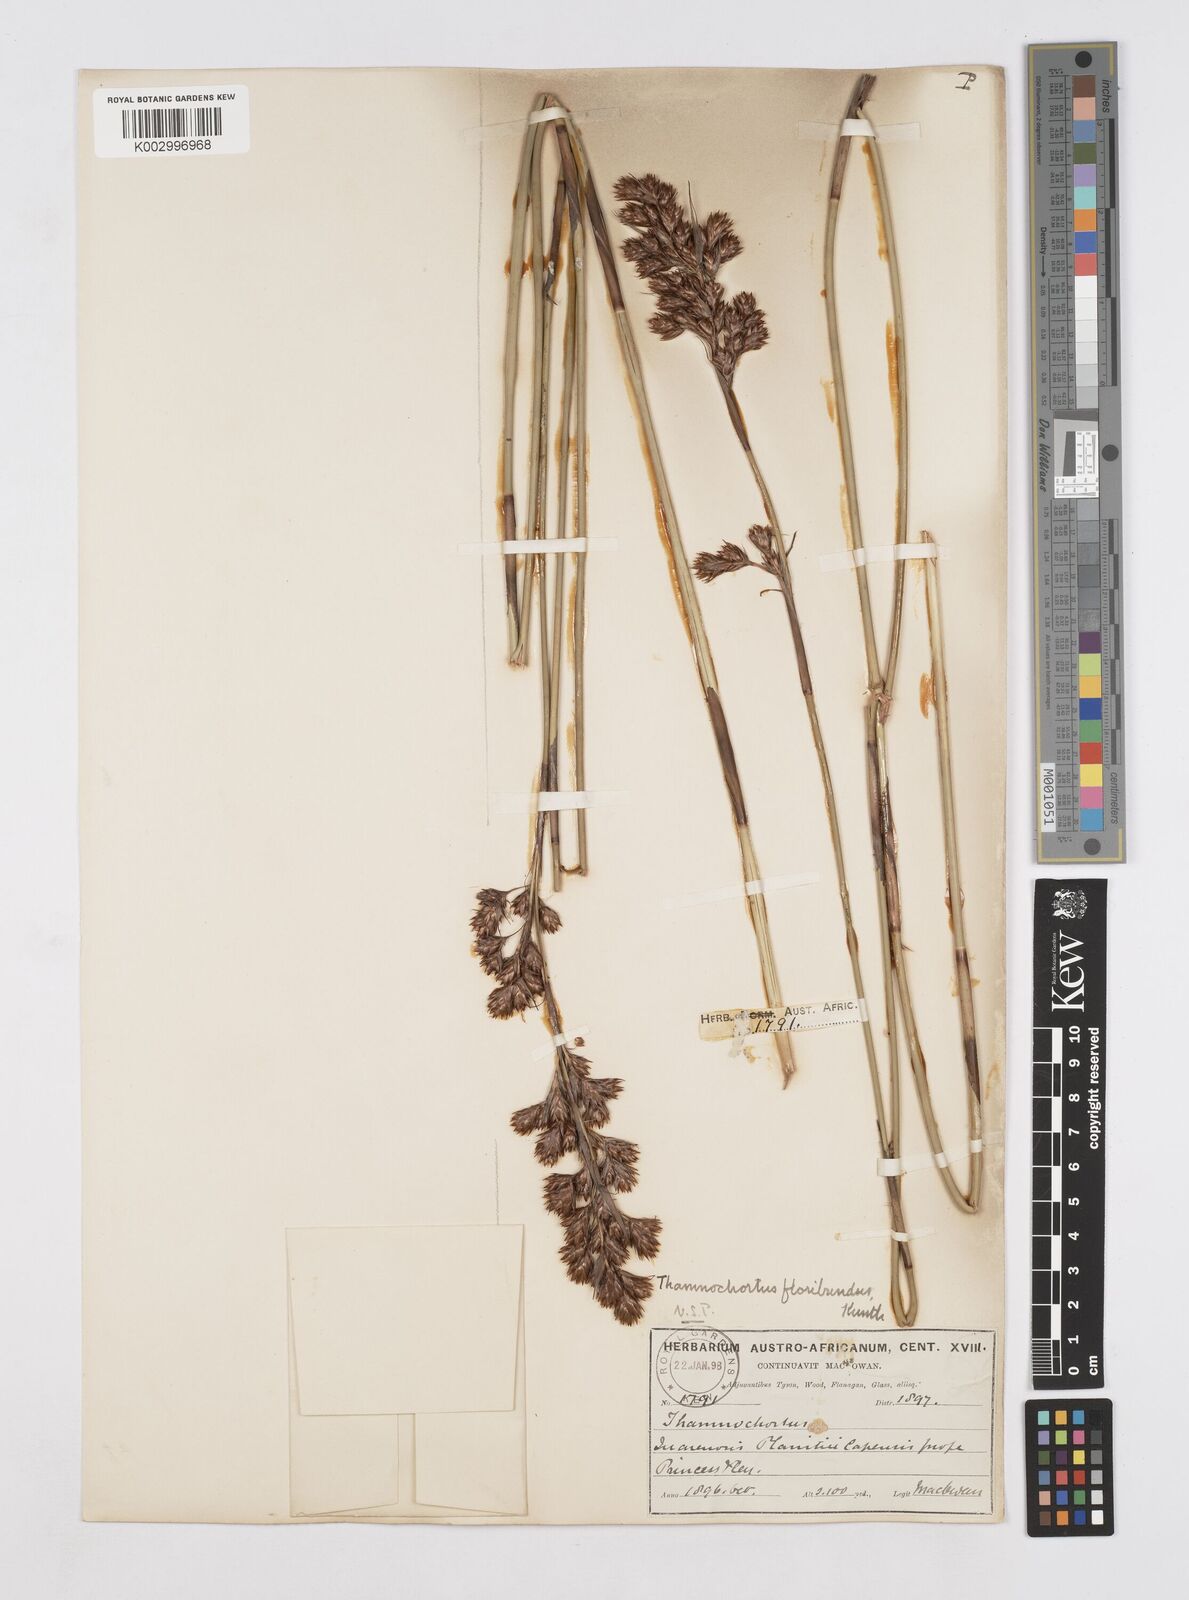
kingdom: Plantae
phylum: Tracheophyta
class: Liliopsida
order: Poales
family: Restionaceae
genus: Thamnochortus
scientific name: Thamnochortus erectus
